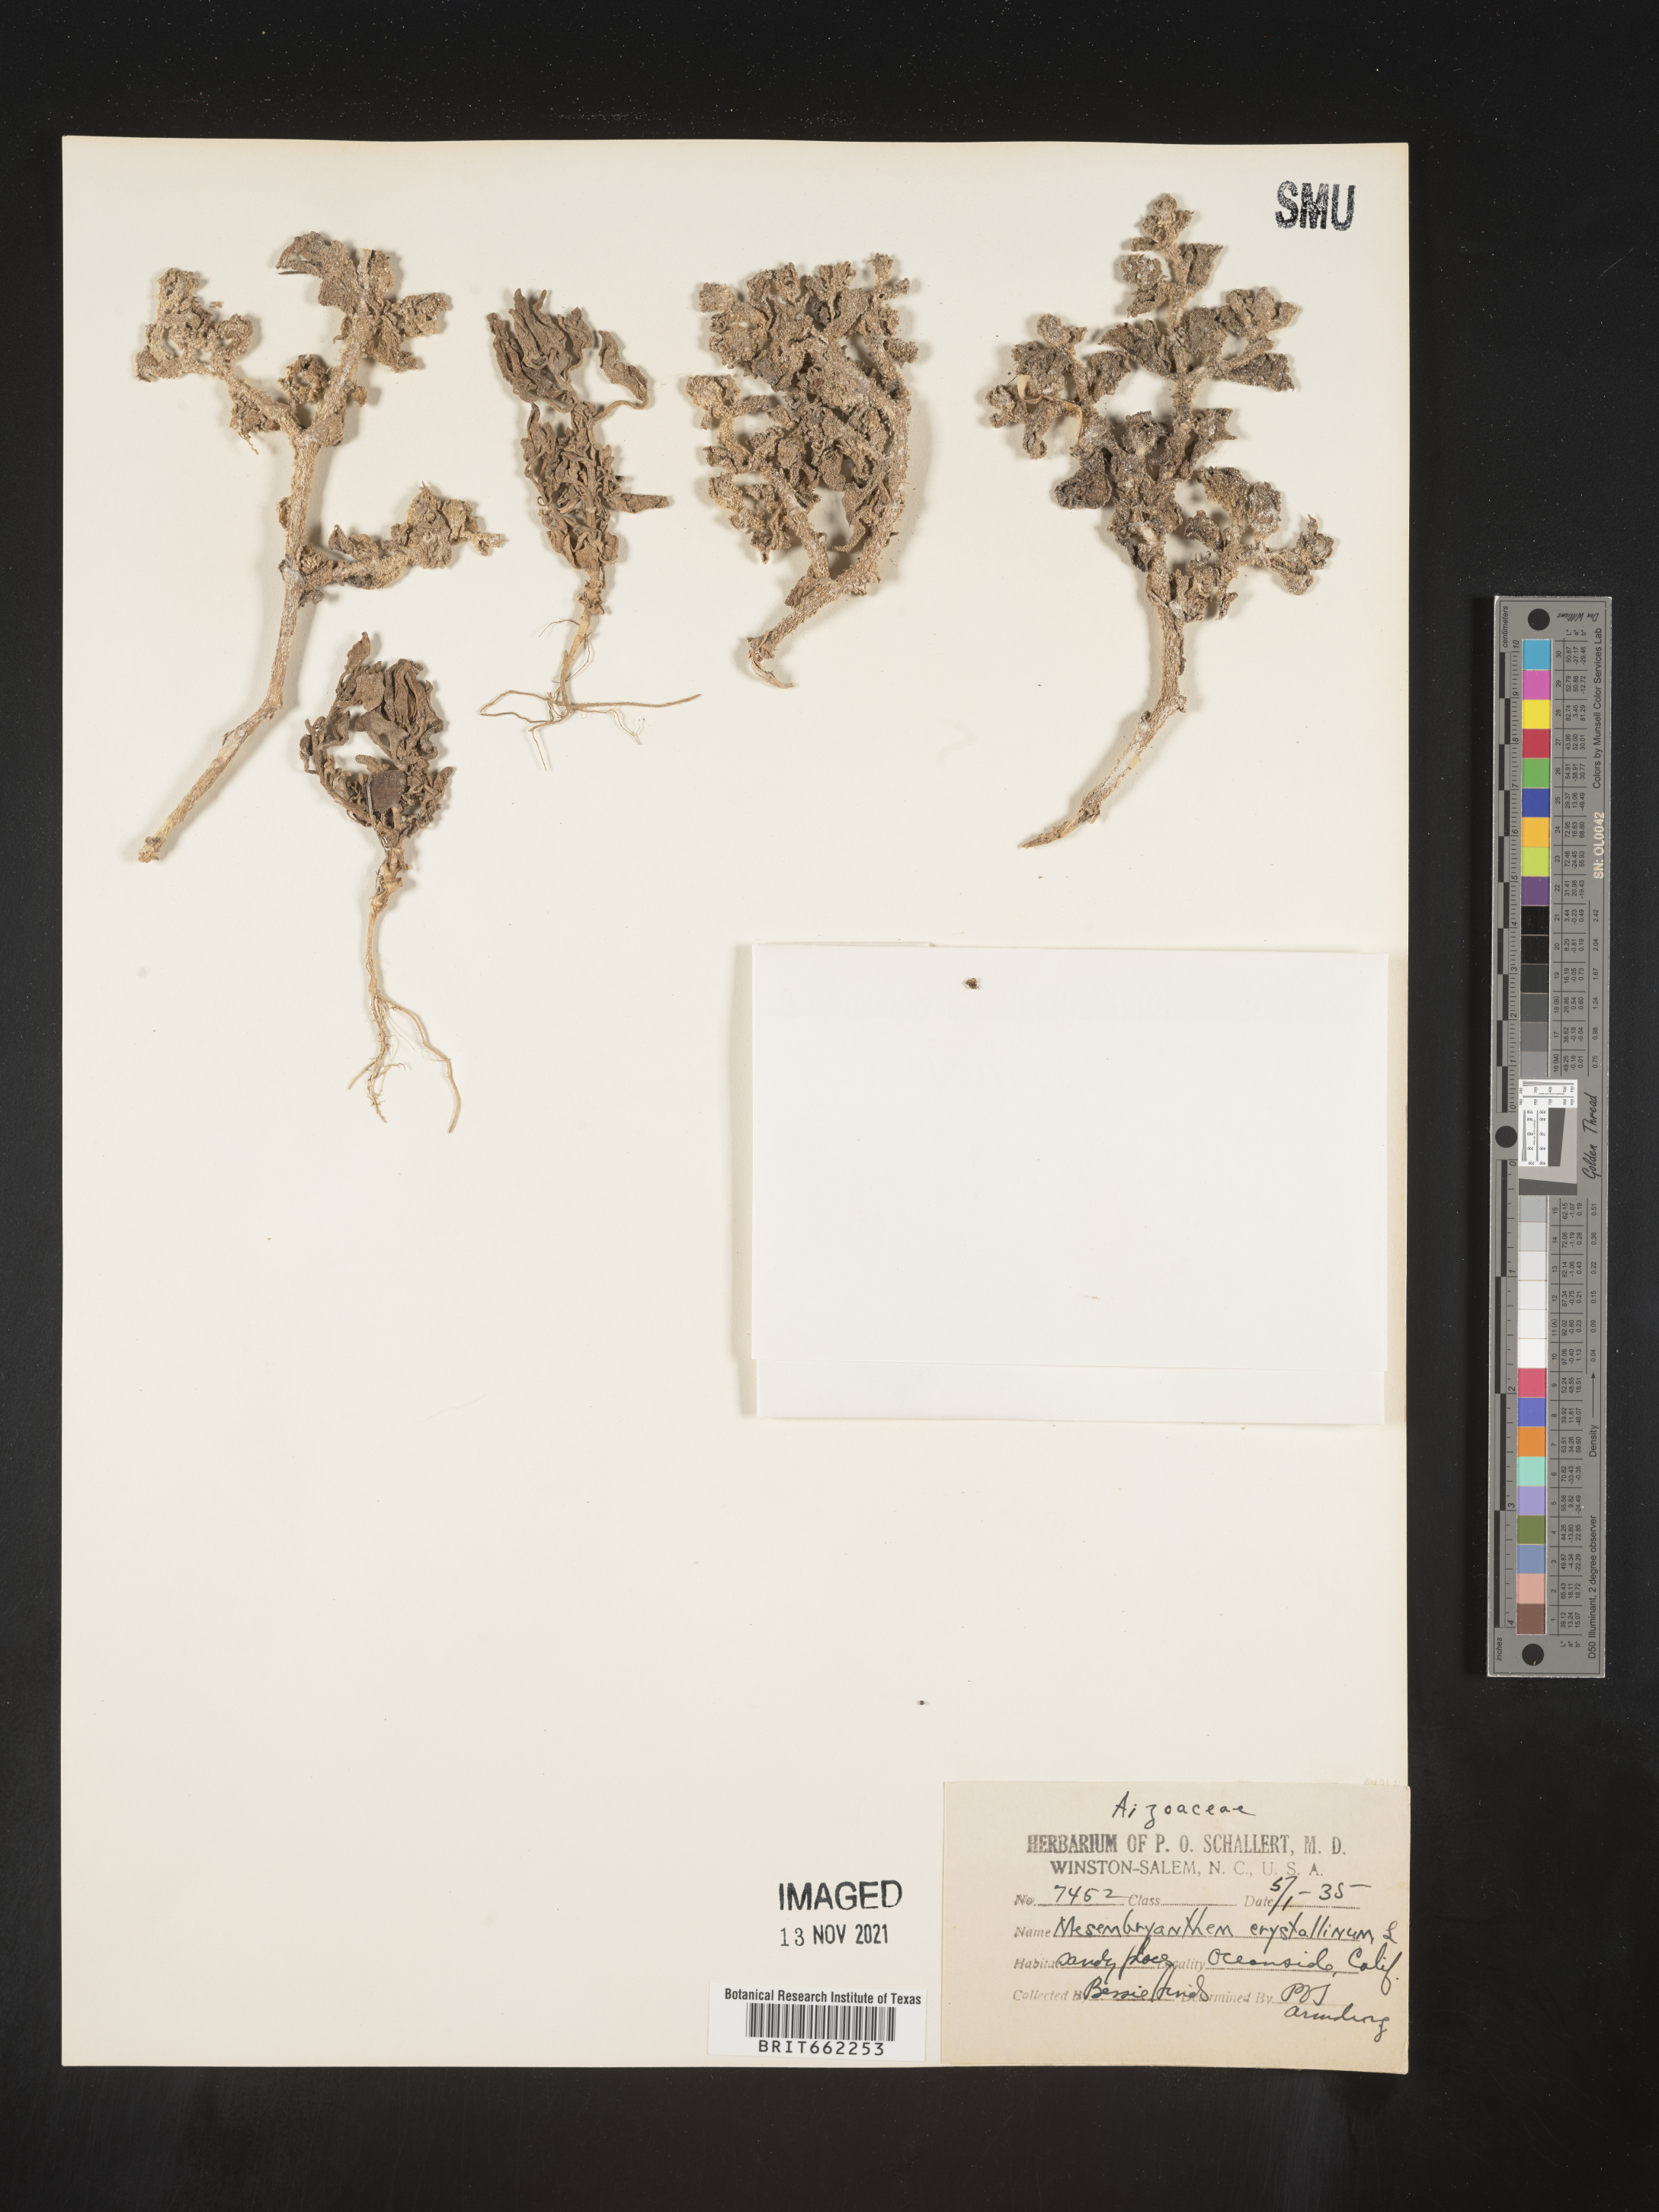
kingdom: Plantae
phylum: Tracheophyta
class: Magnoliopsida
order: Caryophyllales
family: Aizoaceae
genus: Mesembryanthemum
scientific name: Mesembryanthemum
